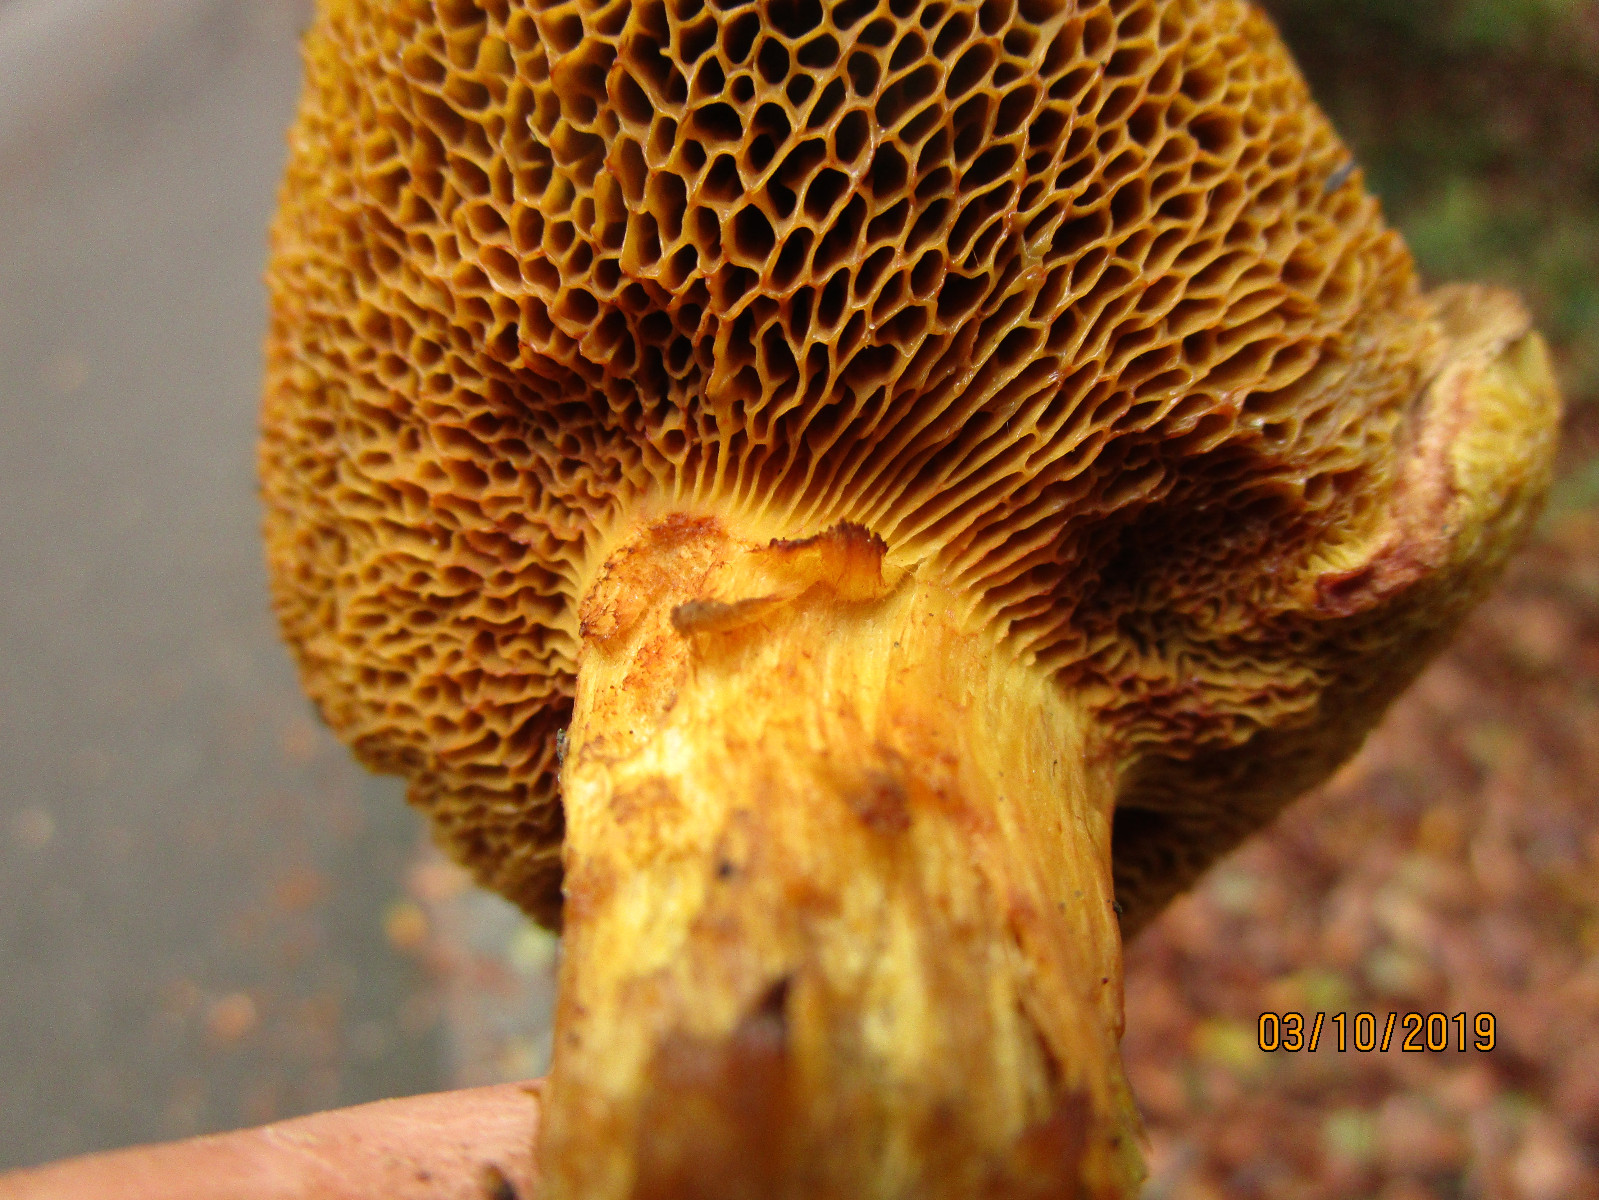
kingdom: Fungi
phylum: Basidiomycota
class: Agaricomycetes
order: Boletales
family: Boletaceae
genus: Xerocomus
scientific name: Xerocomus
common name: filtrørhat
